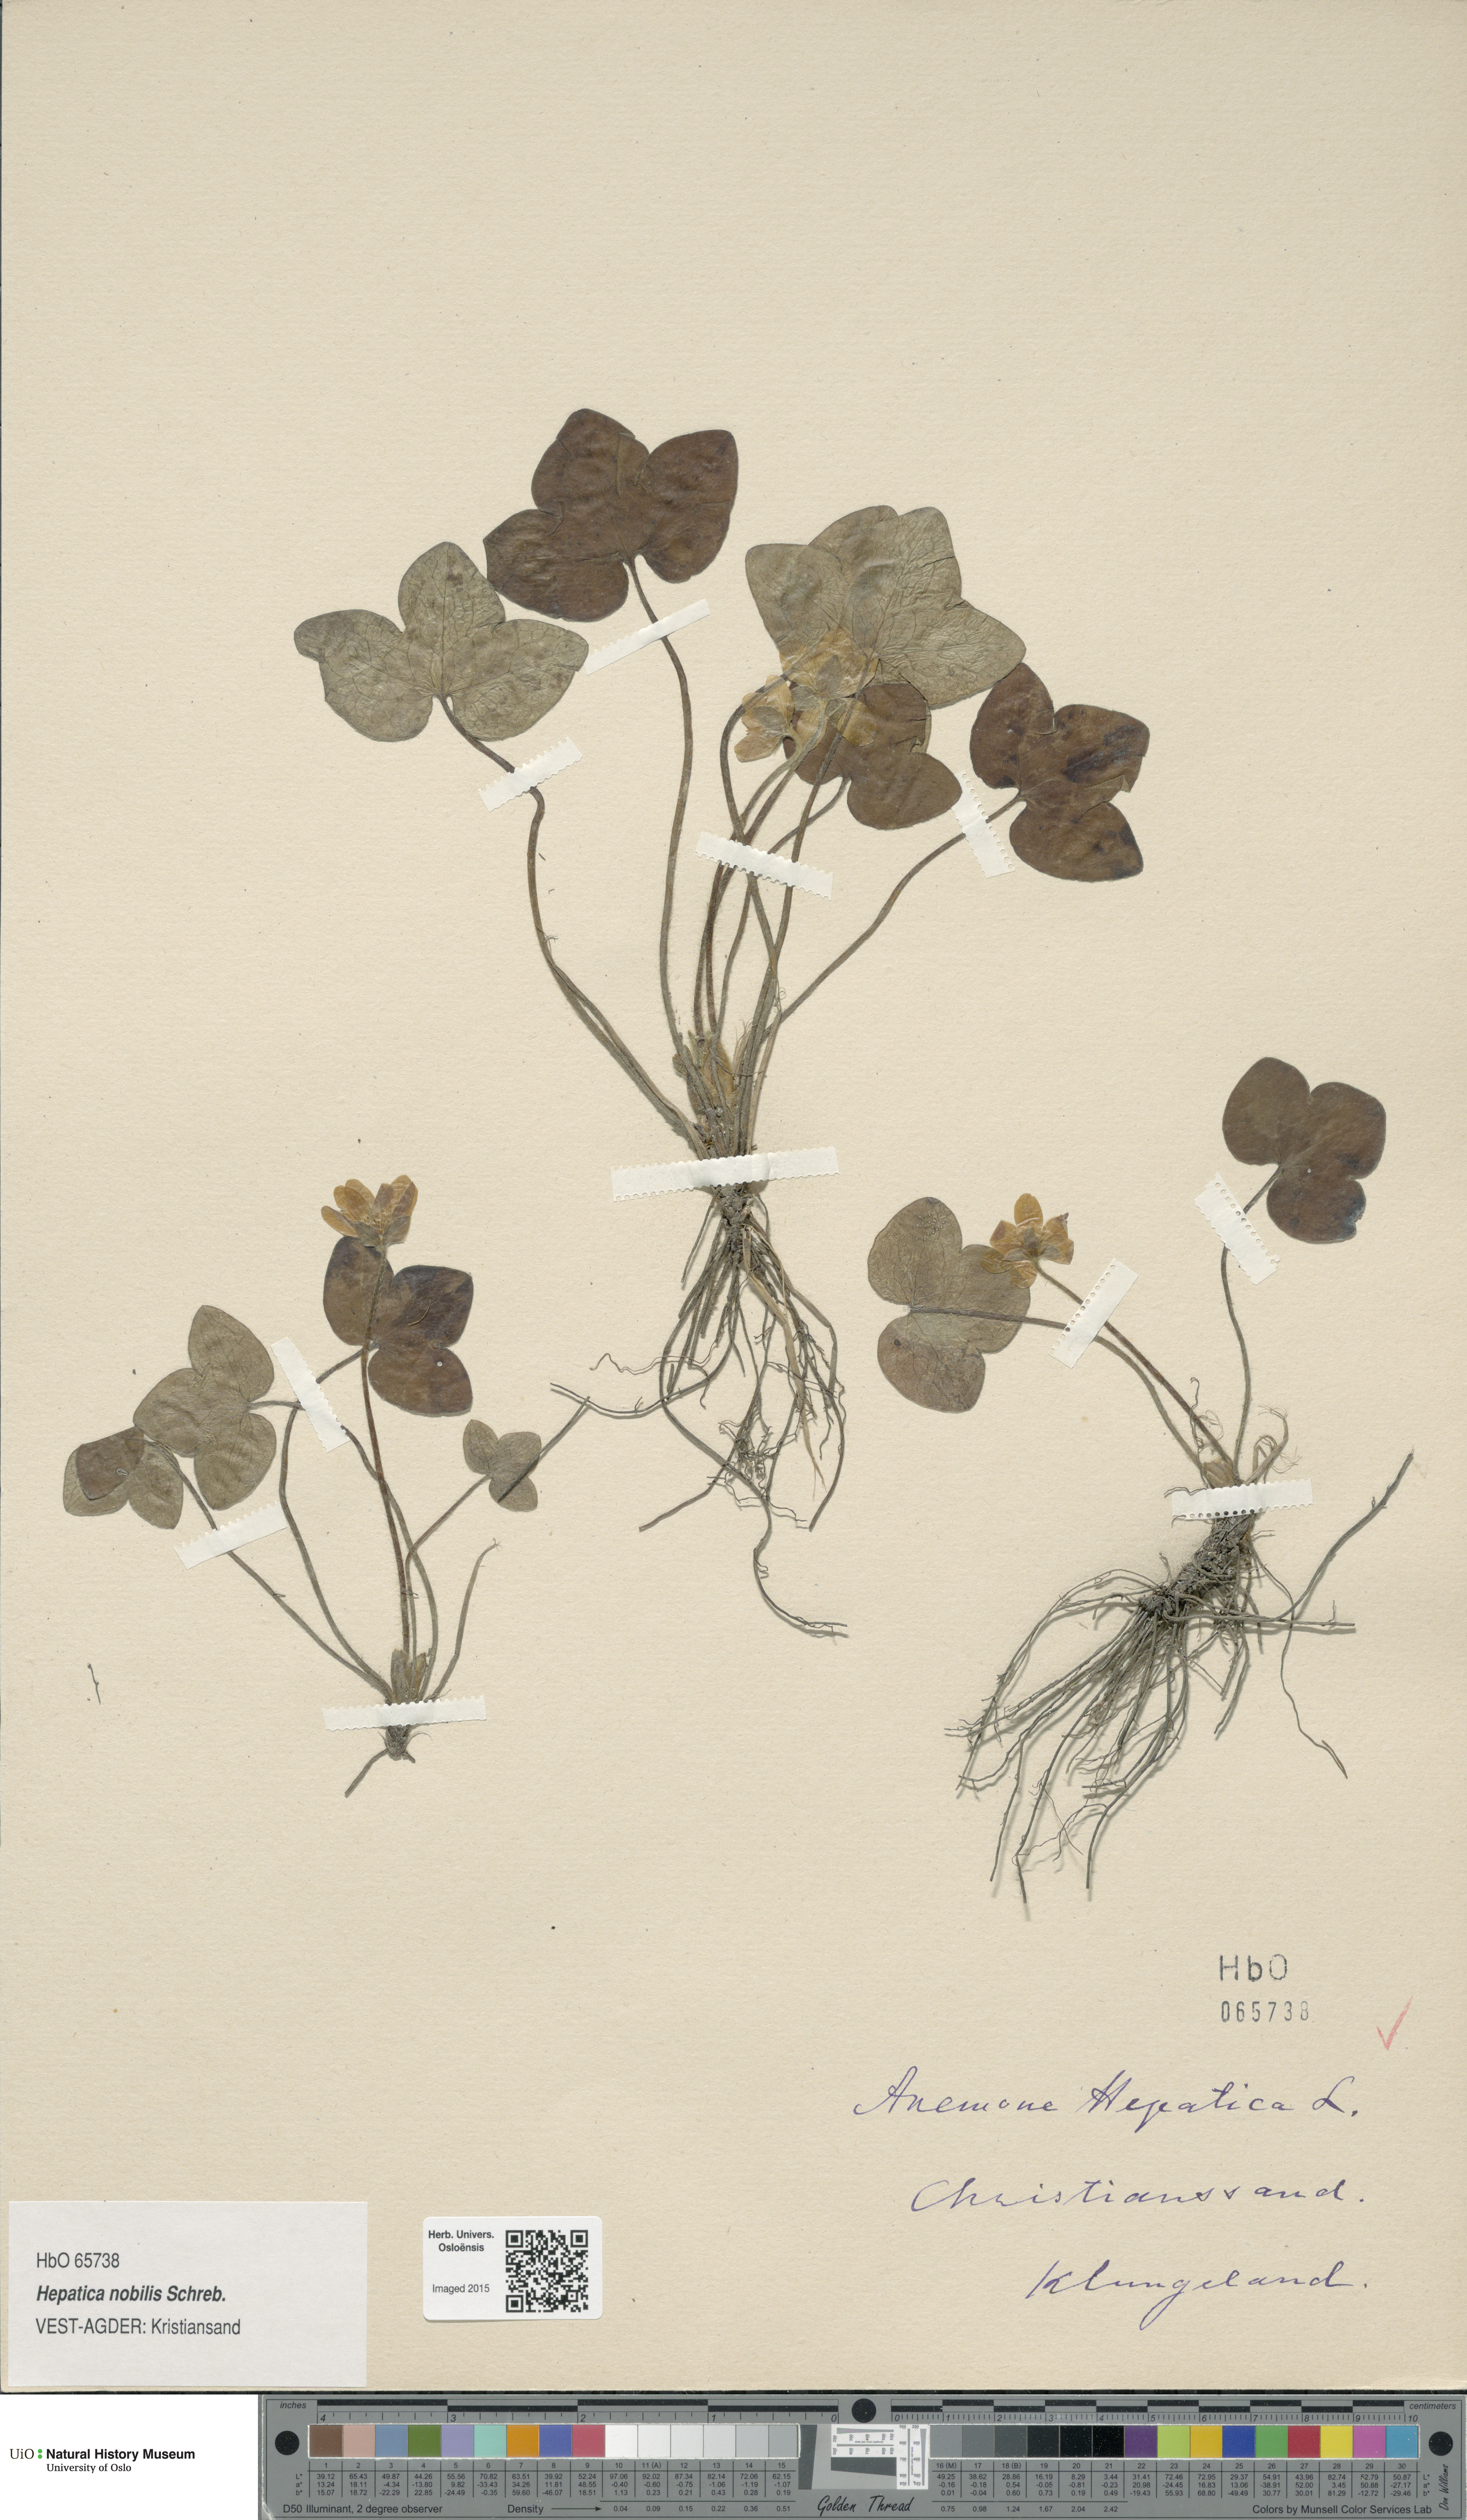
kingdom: Plantae
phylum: Tracheophyta
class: Magnoliopsida
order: Ranunculales
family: Ranunculaceae
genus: Hepatica
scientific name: Hepatica nobilis
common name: Liverleaf
